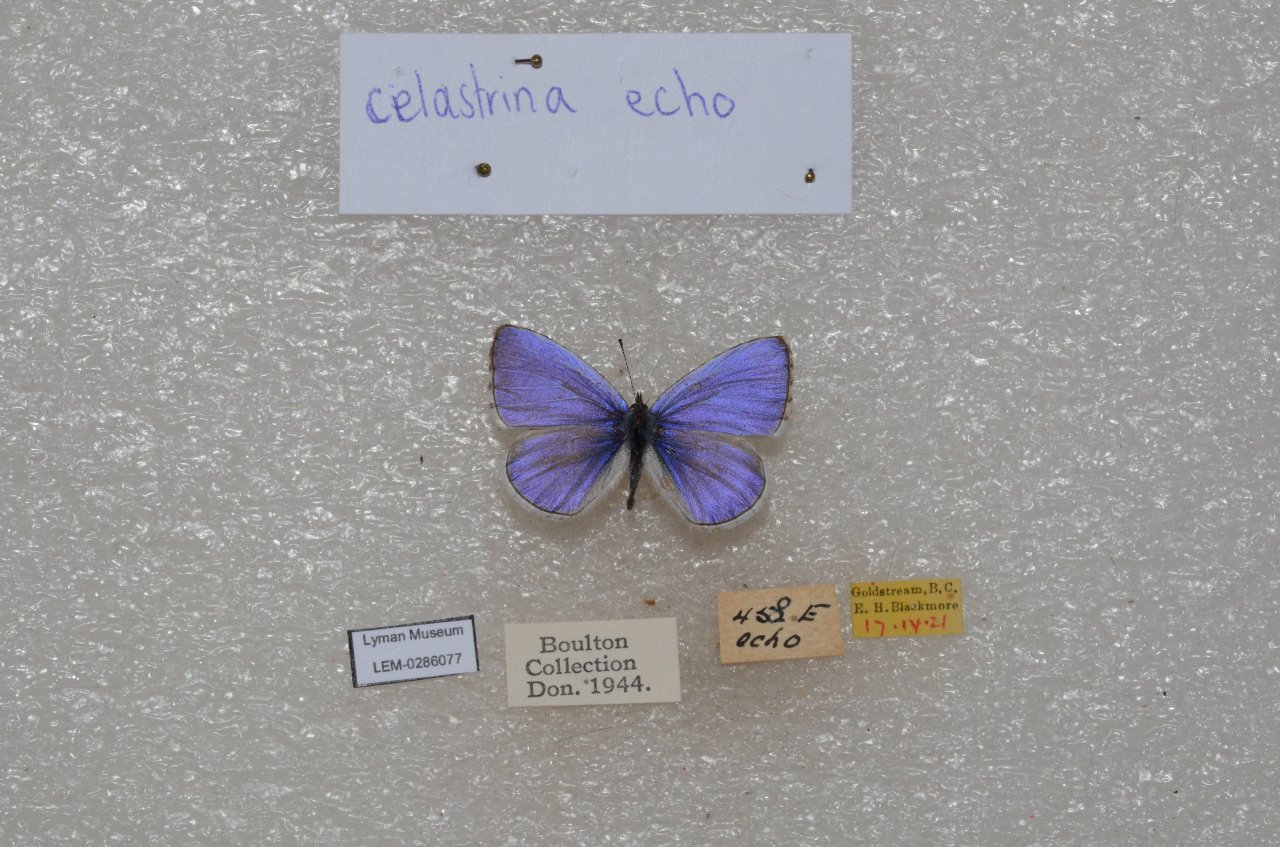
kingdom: Animalia
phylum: Arthropoda
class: Insecta
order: Lepidoptera
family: Lycaenidae
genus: Celastrina
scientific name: Celastrina ladon
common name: Echo Azure
